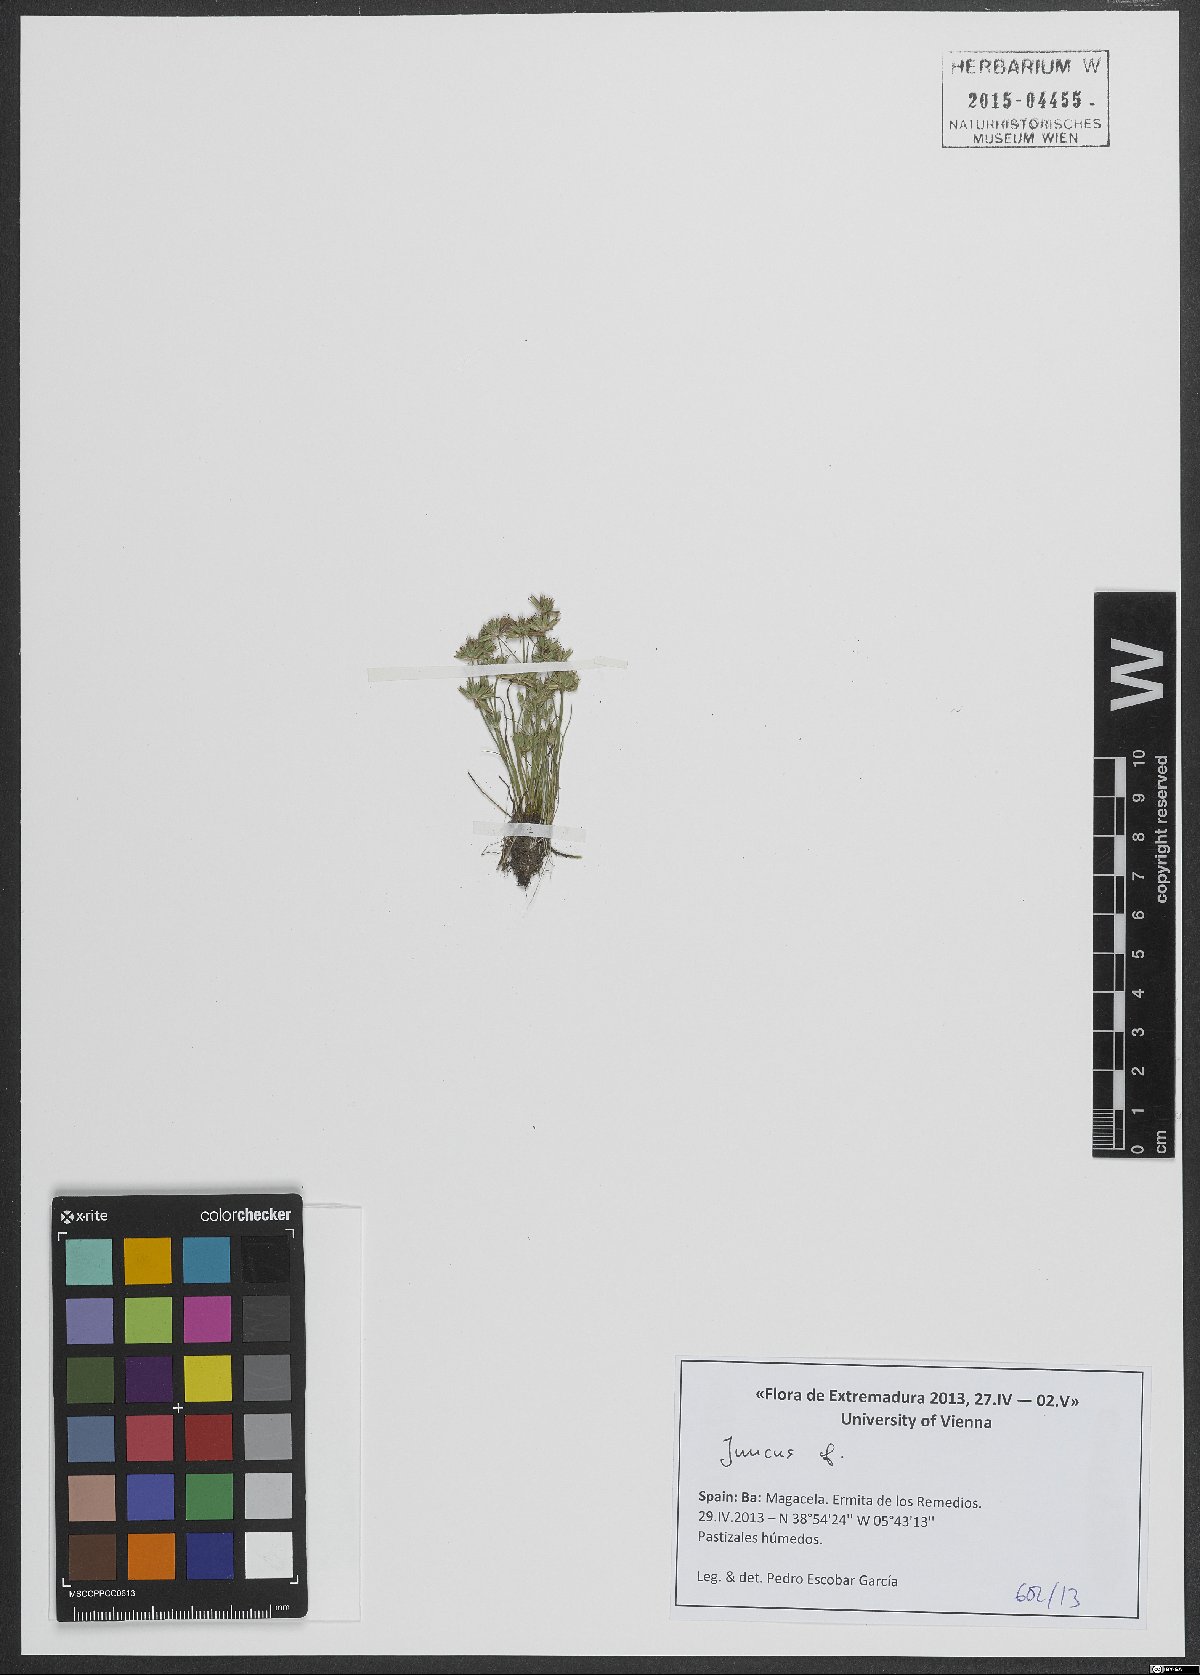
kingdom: Plantae
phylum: Tracheophyta
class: Liliopsida
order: Poales
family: Juncaceae
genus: Juncus
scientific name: Juncus
